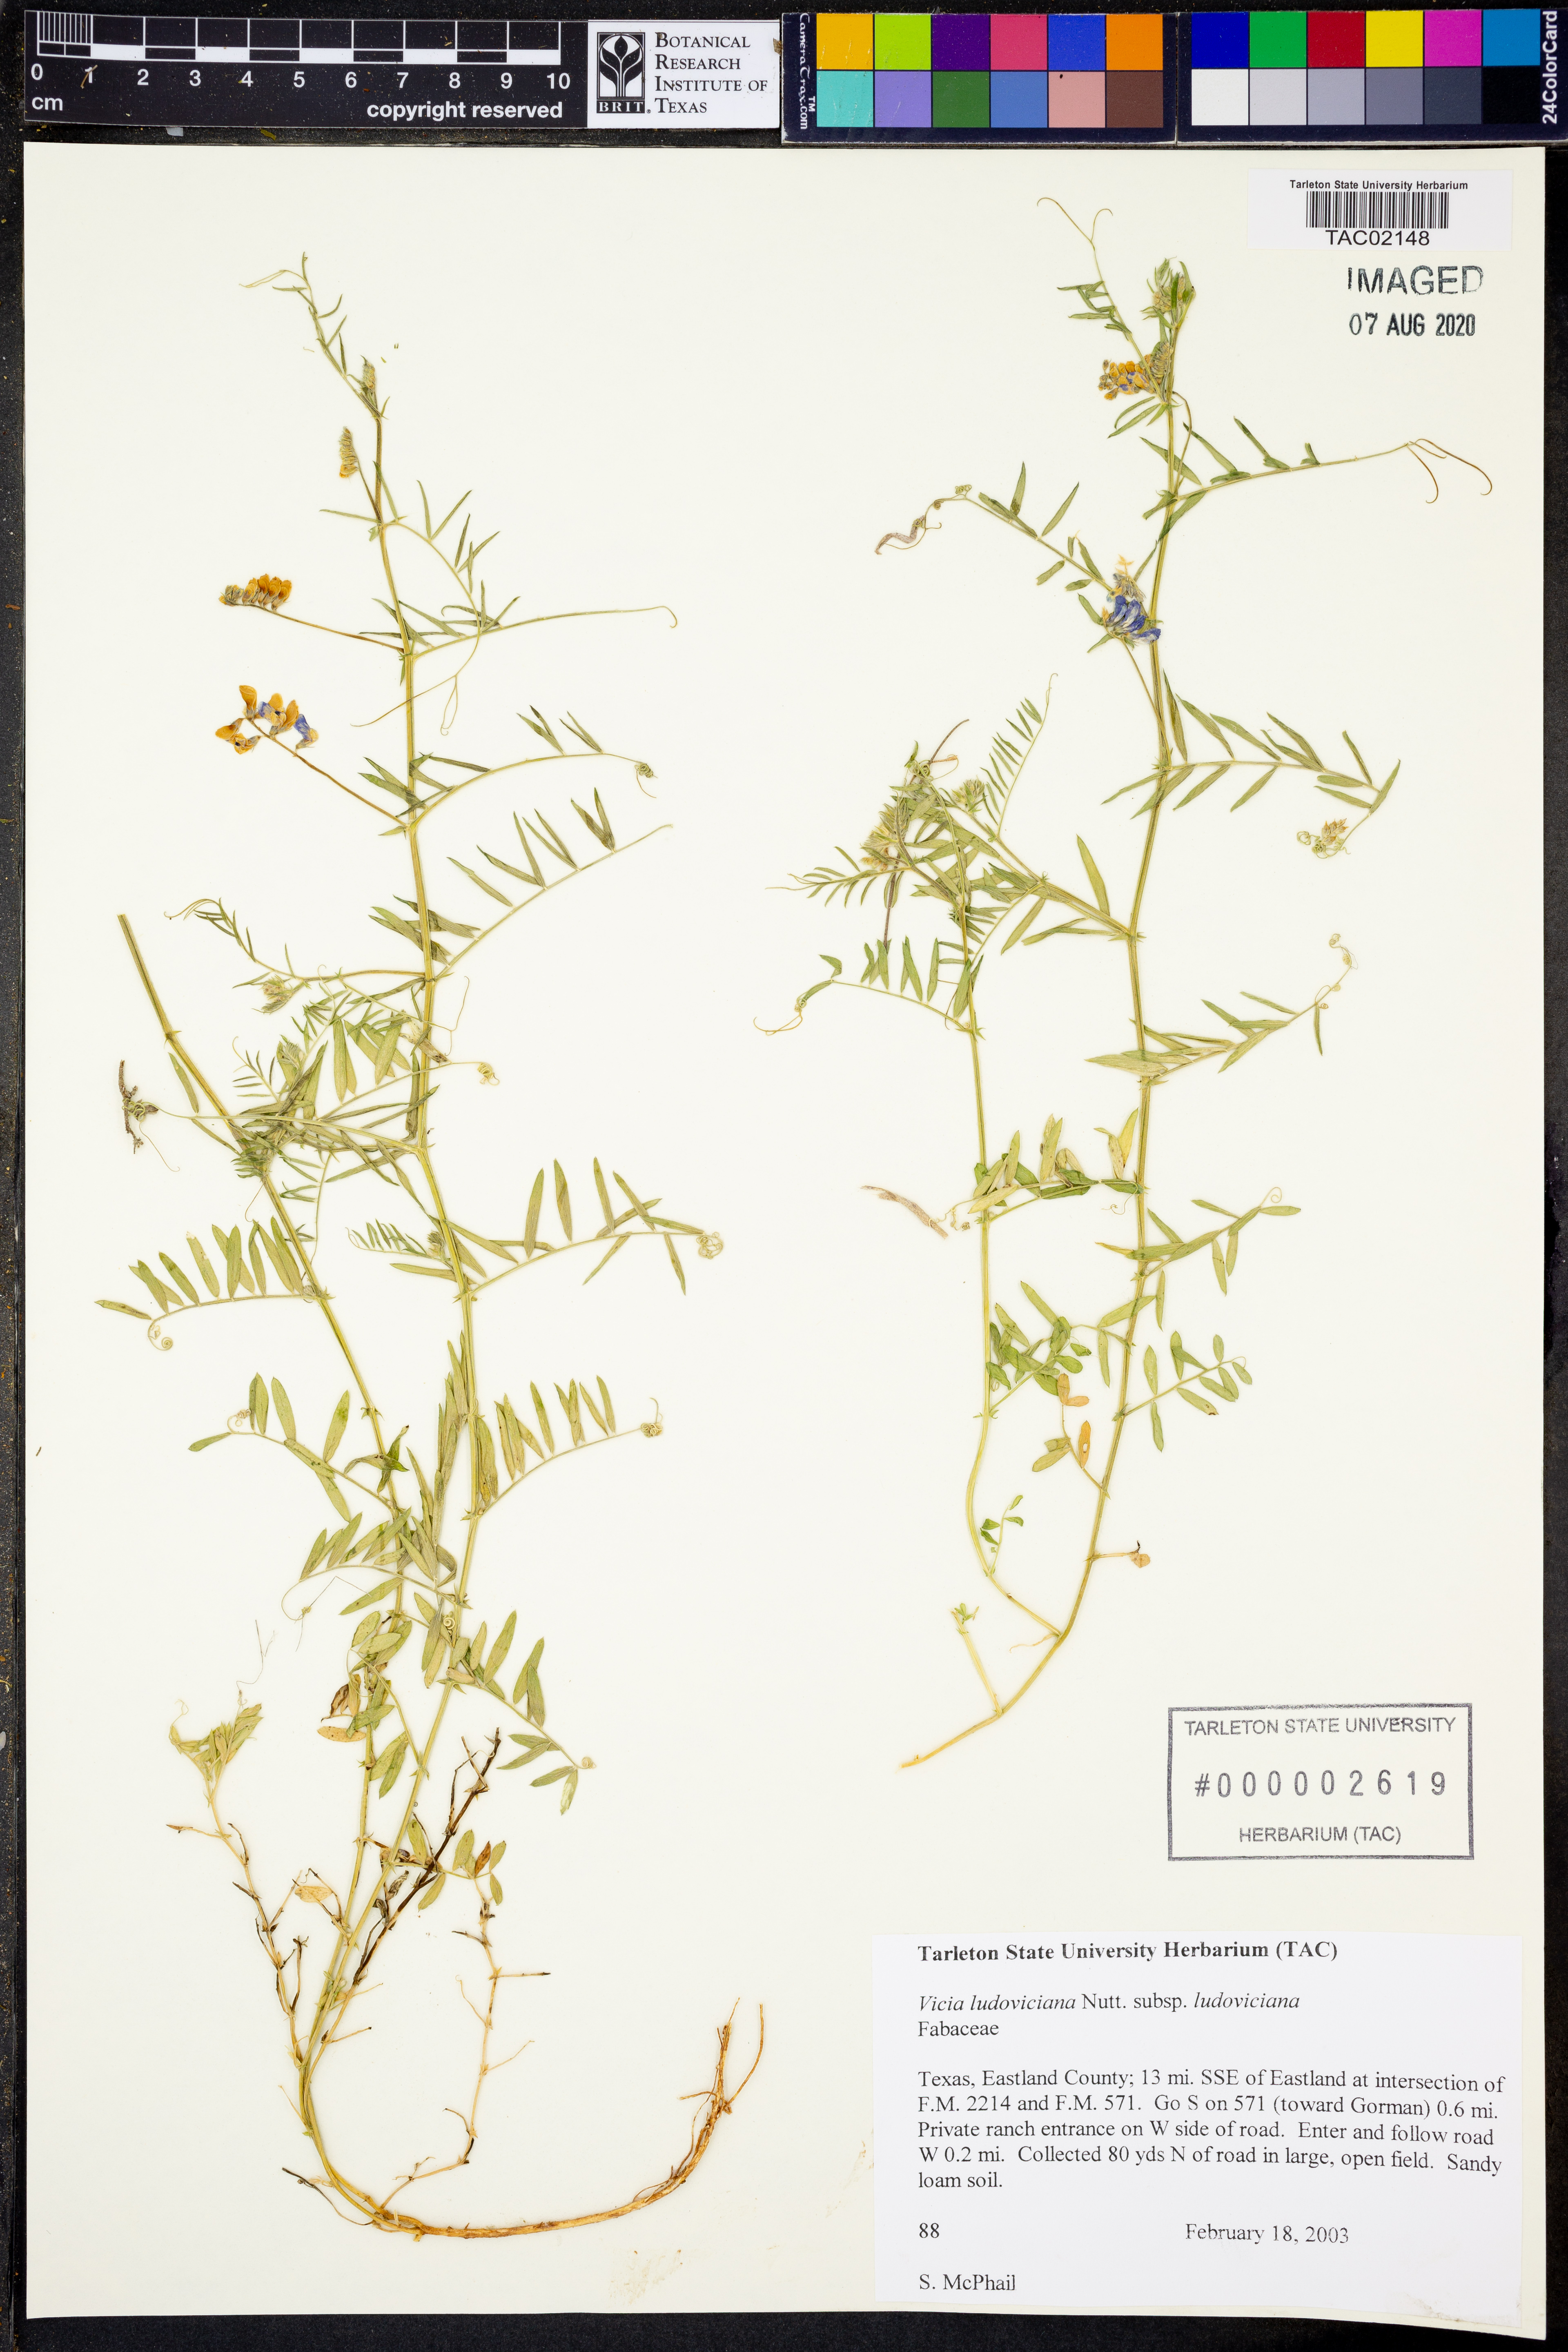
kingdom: Plantae
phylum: Tracheophyta
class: Magnoliopsida
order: Fabales
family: Fabaceae
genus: Vicia
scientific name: Vicia ludoviciana
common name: Louisiana vetch
